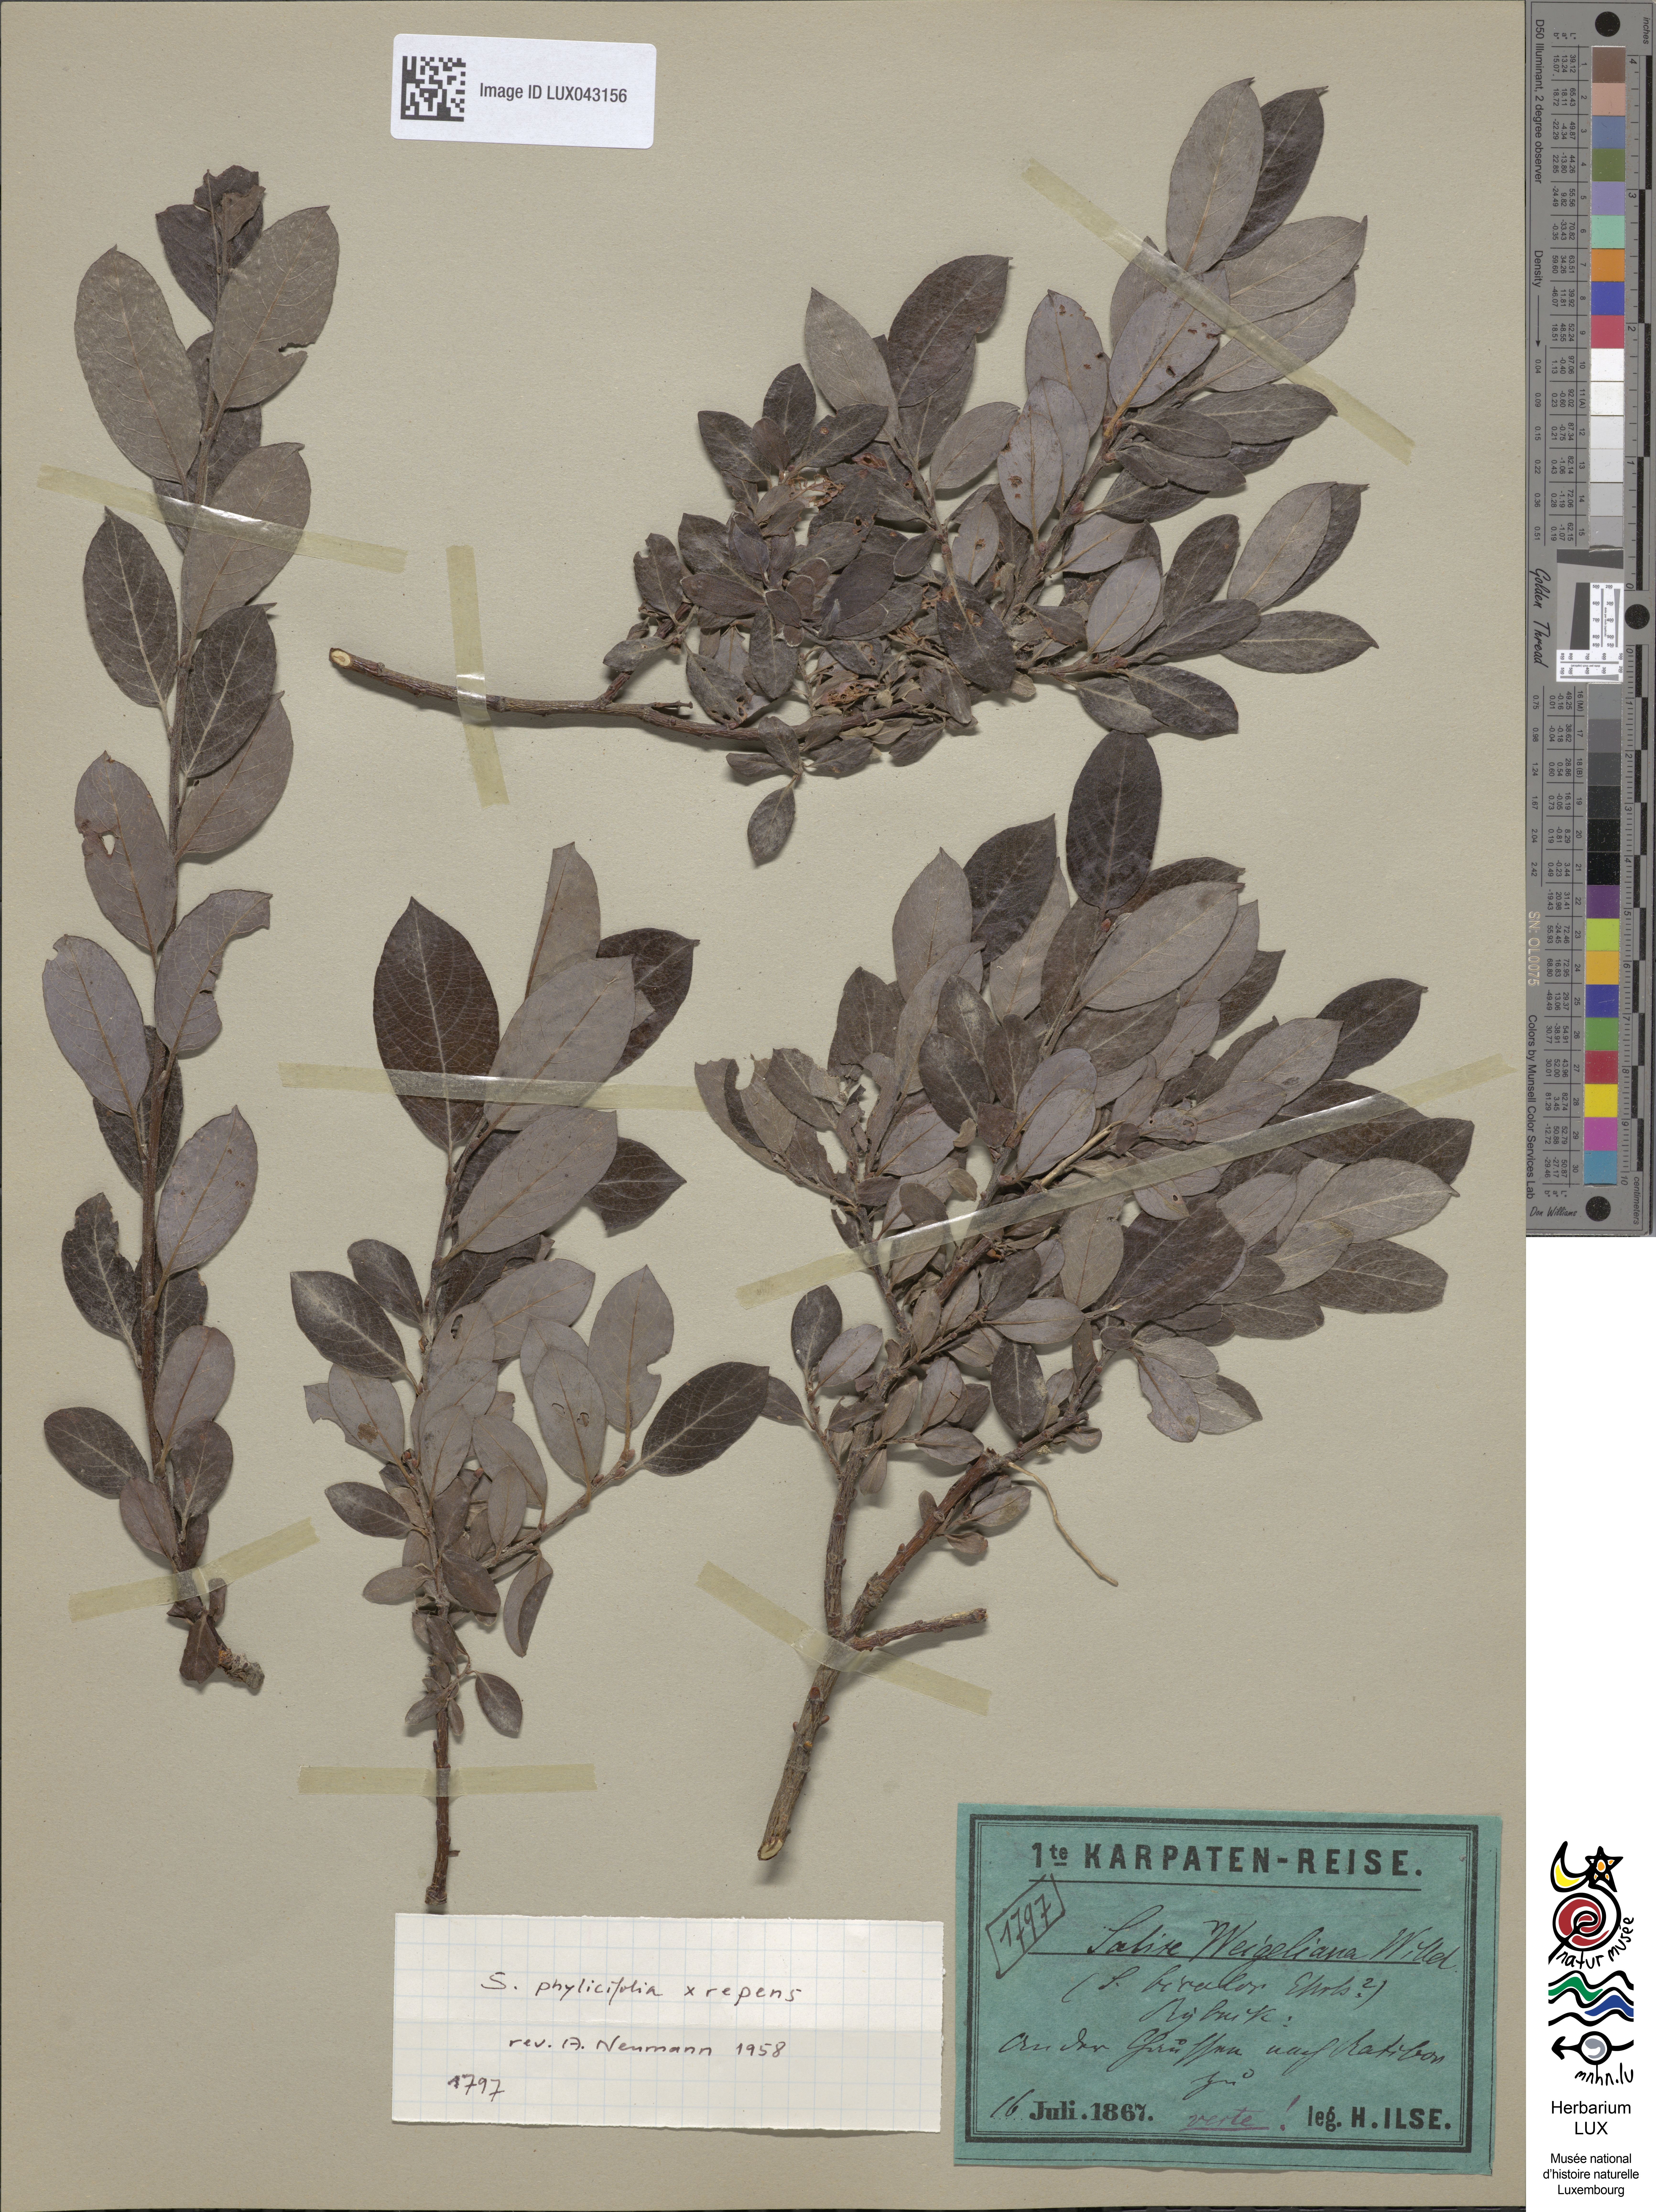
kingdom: Plantae
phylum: Tracheophyta
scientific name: Tracheophyta
